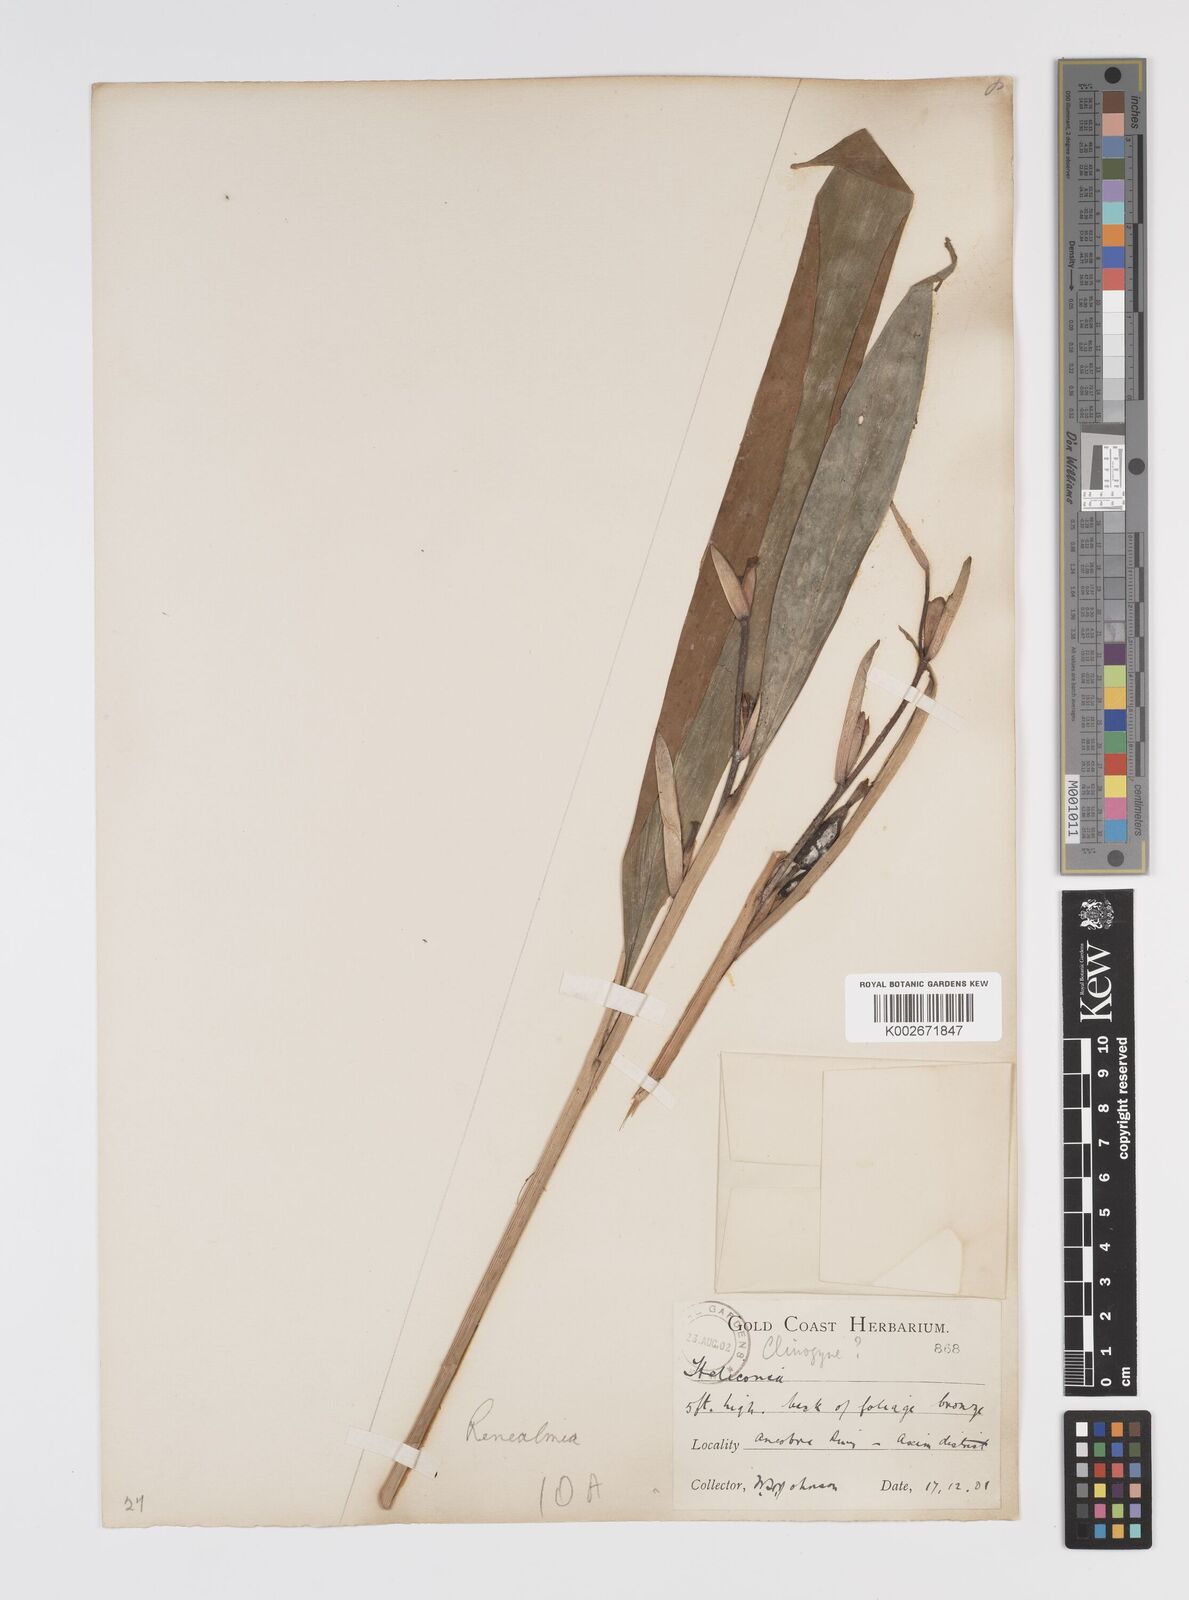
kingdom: Plantae
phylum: Tracheophyta
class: Liliopsida
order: Zingiberales
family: Zingiberaceae
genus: Renealmia
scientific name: Renealmia
